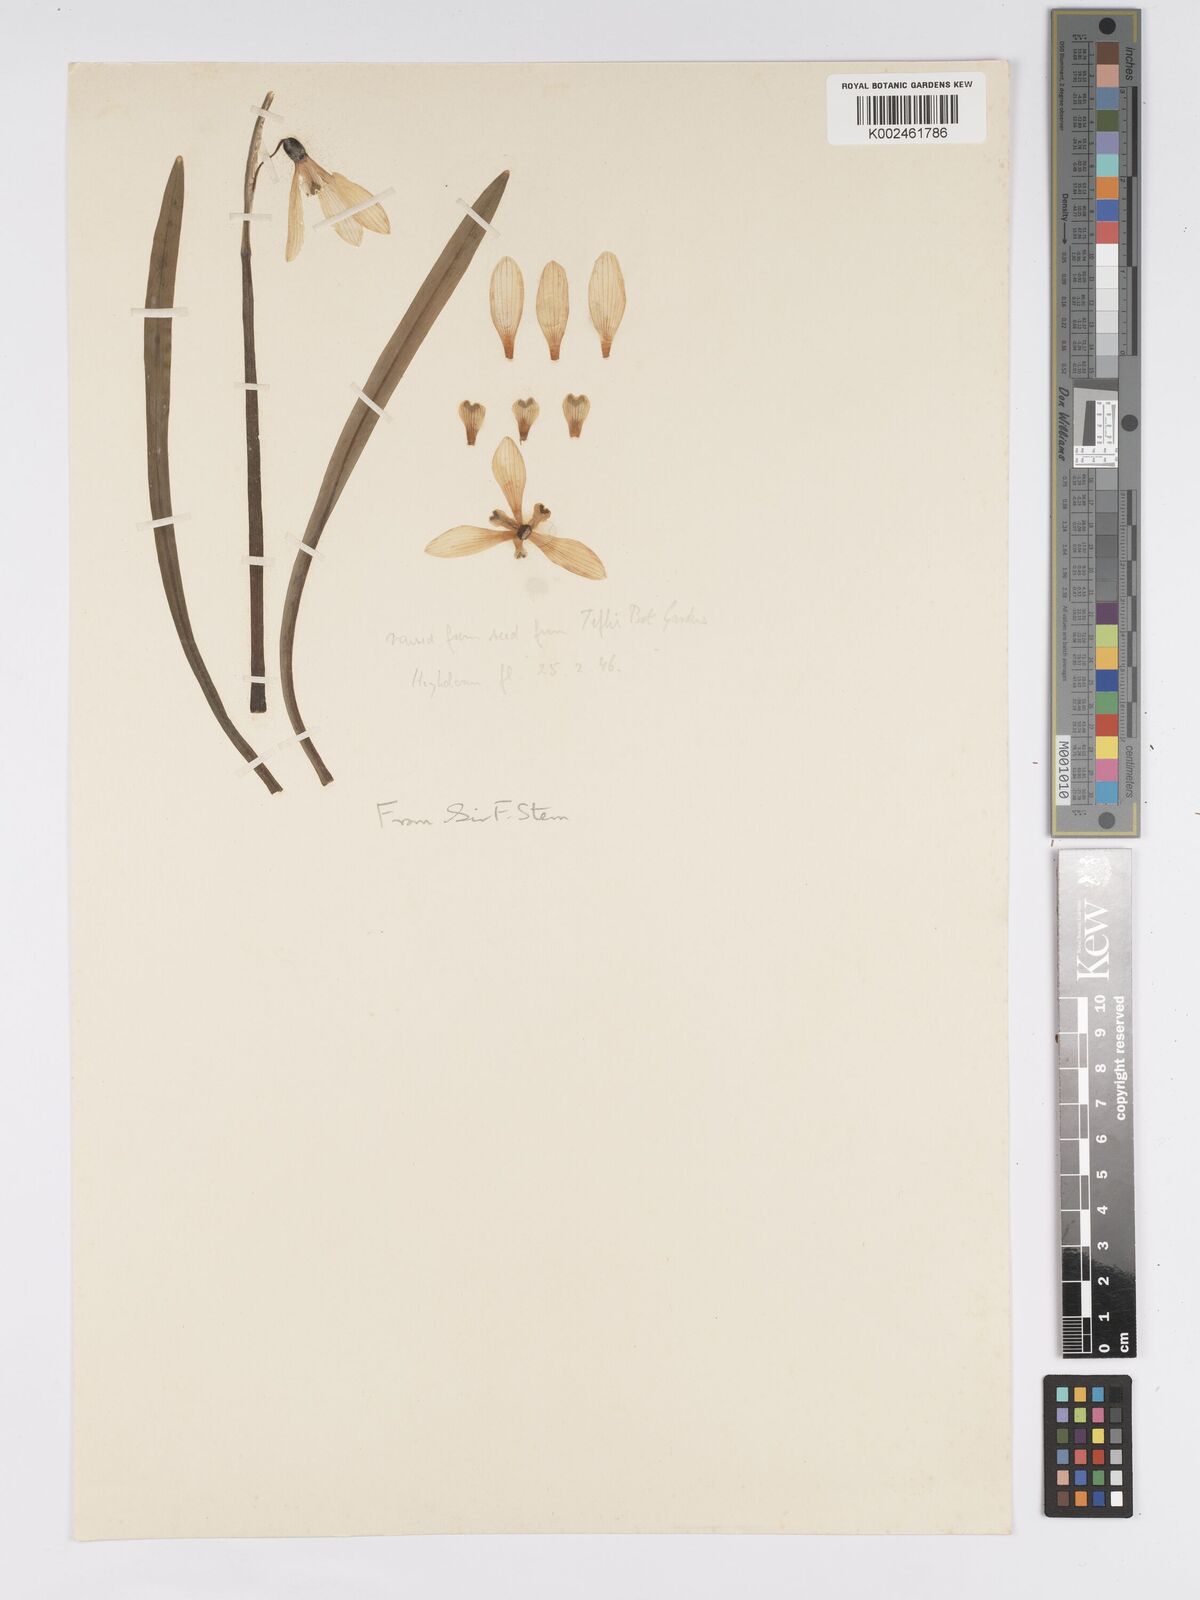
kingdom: Plantae
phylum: Tracheophyta
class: Liliopsida
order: Asparagales
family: Amaryllidaceae
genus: Galanthus
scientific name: Galanthus
